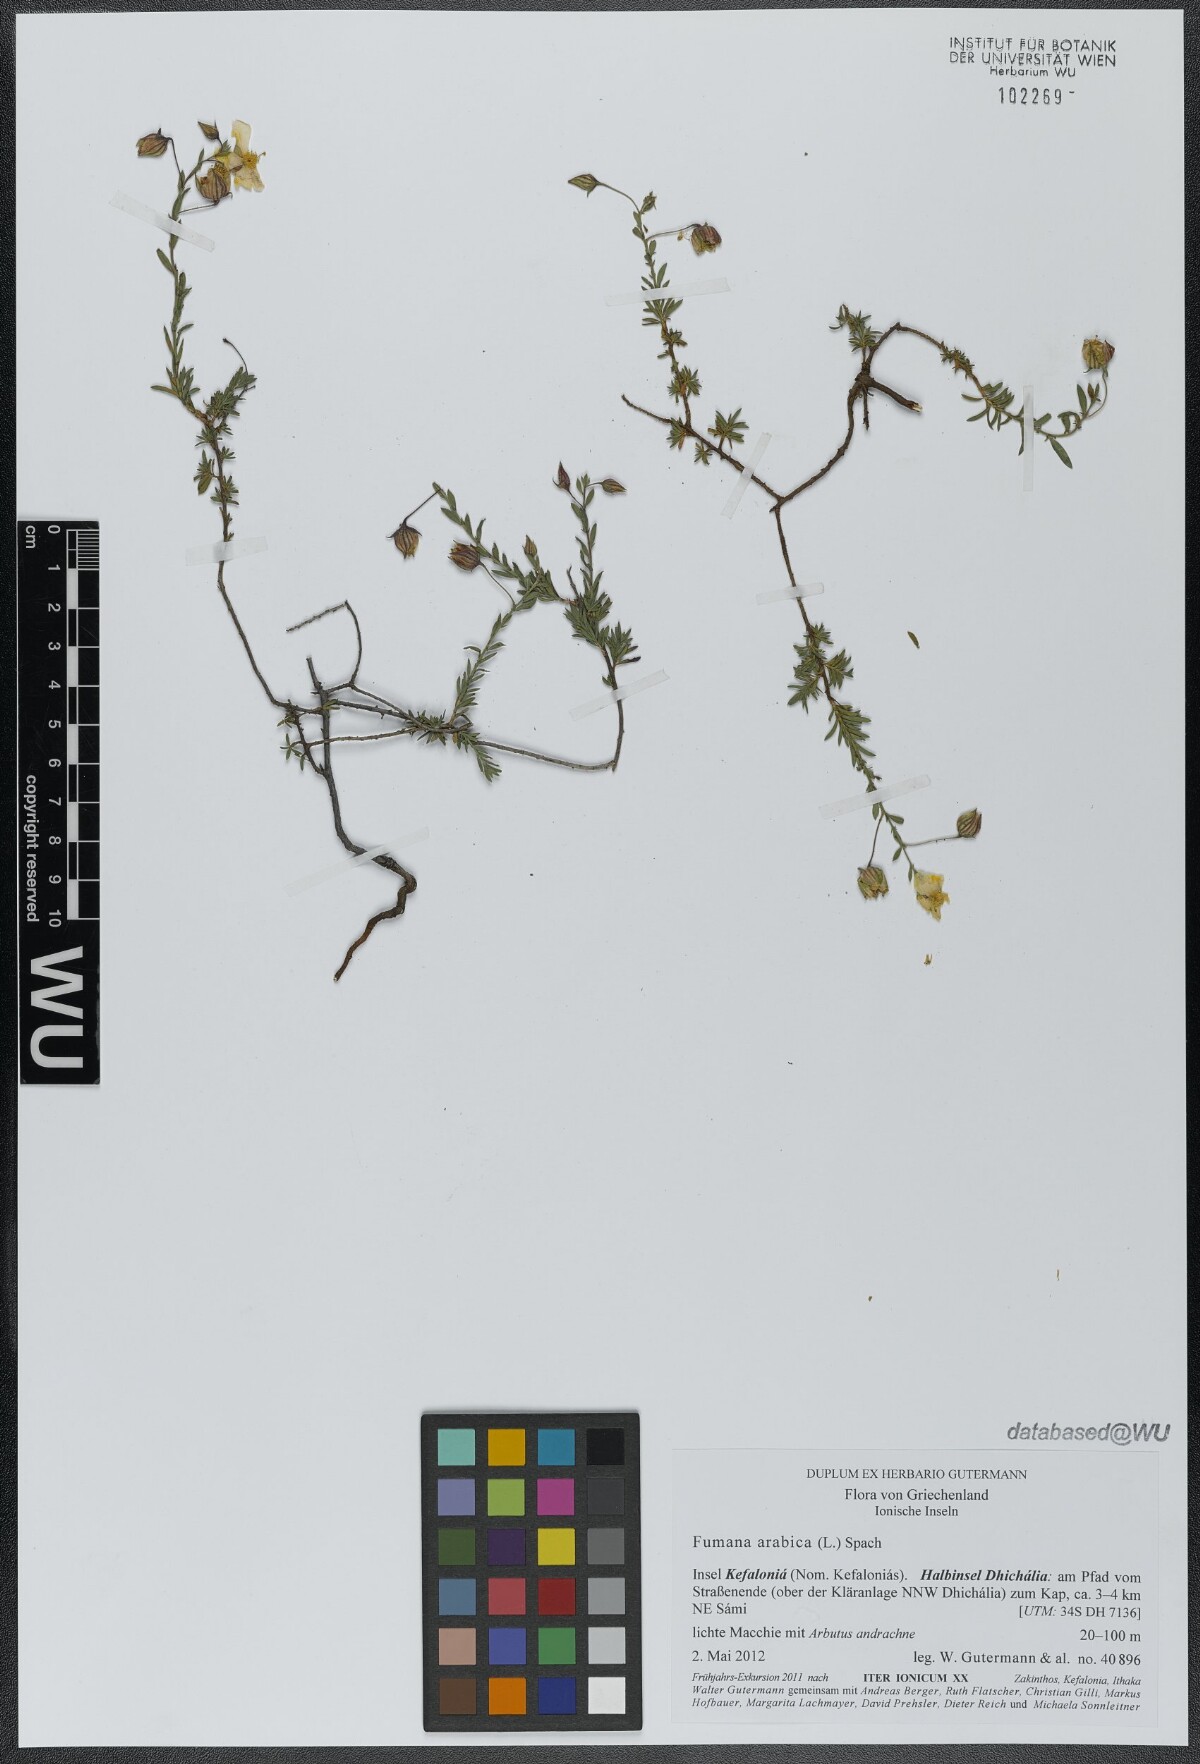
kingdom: Plantae
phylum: Tracheophyta
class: Magnoliopsida
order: Malvales
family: Cistaceae
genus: Fumana
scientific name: Fumana arabica
